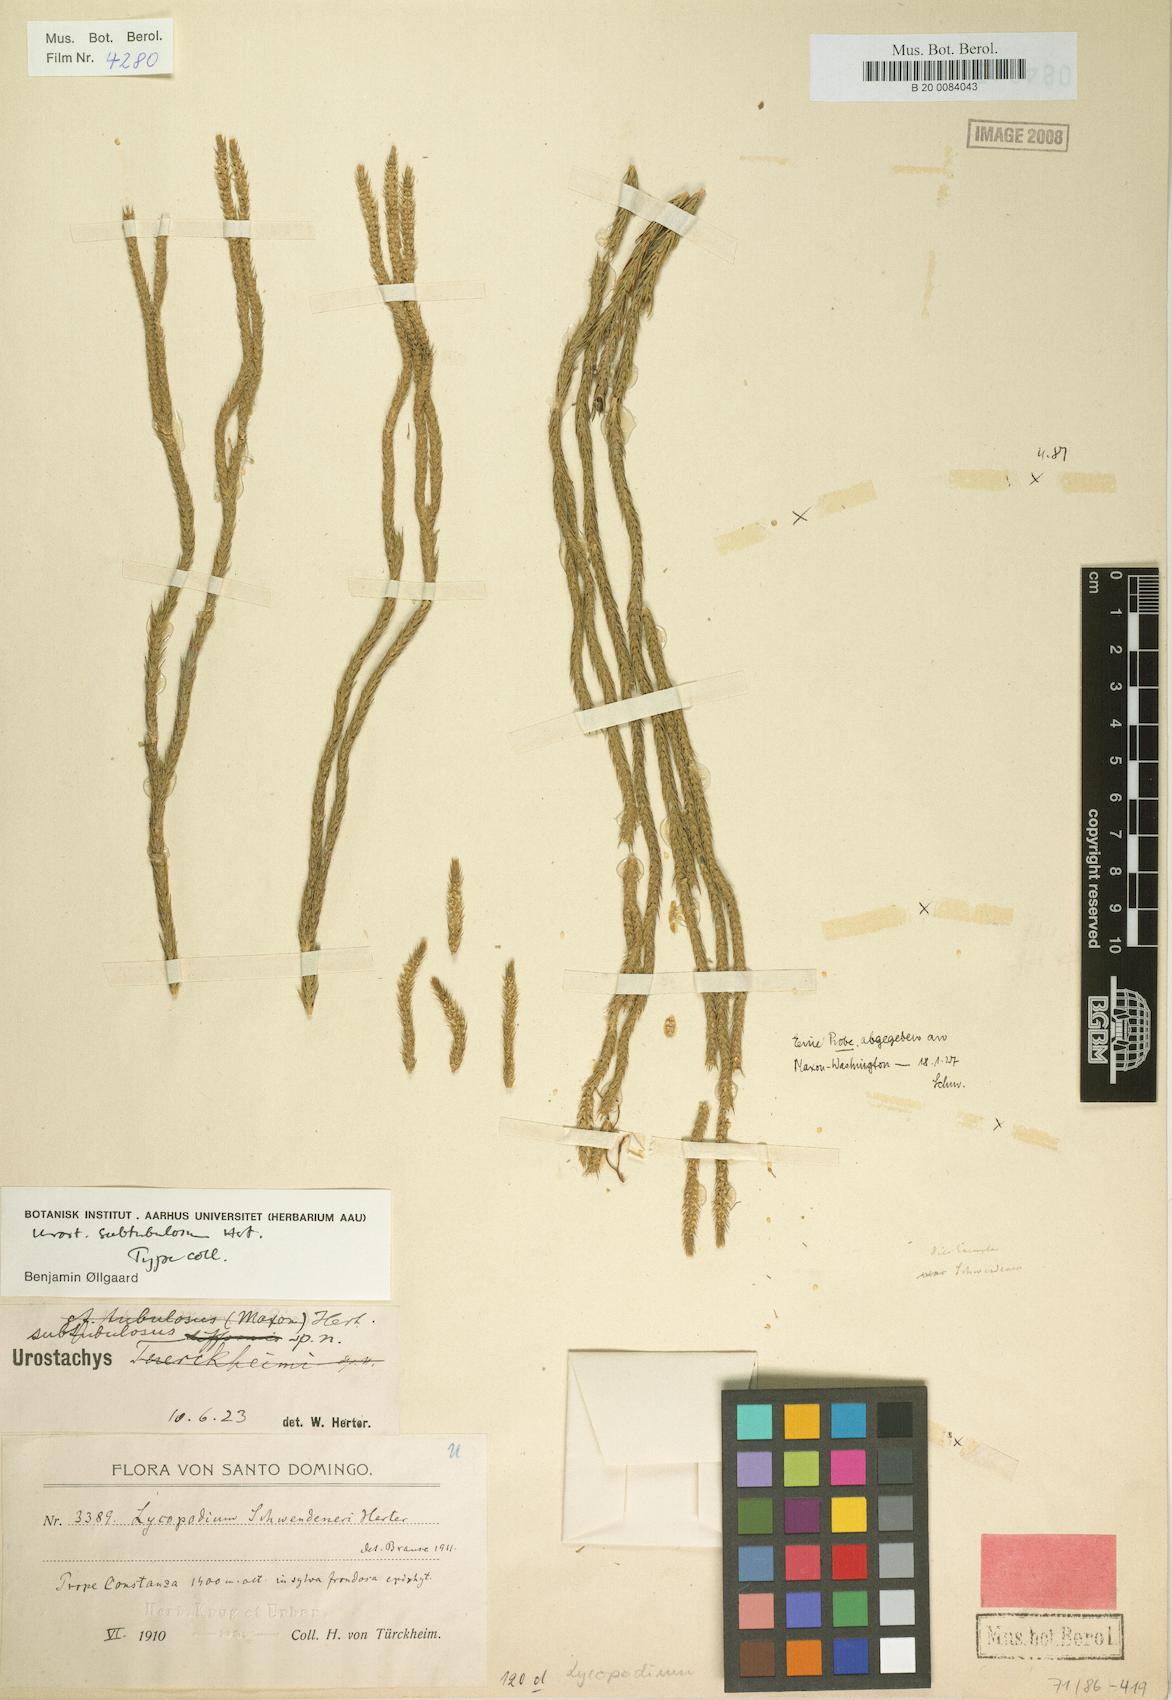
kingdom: Plantae
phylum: Tracheophyta
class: Lycopodiopsida
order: Lycopodiales
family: Lycopodiaceae
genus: Phlegmariurus
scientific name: Phlegmariurus subtubulosus
